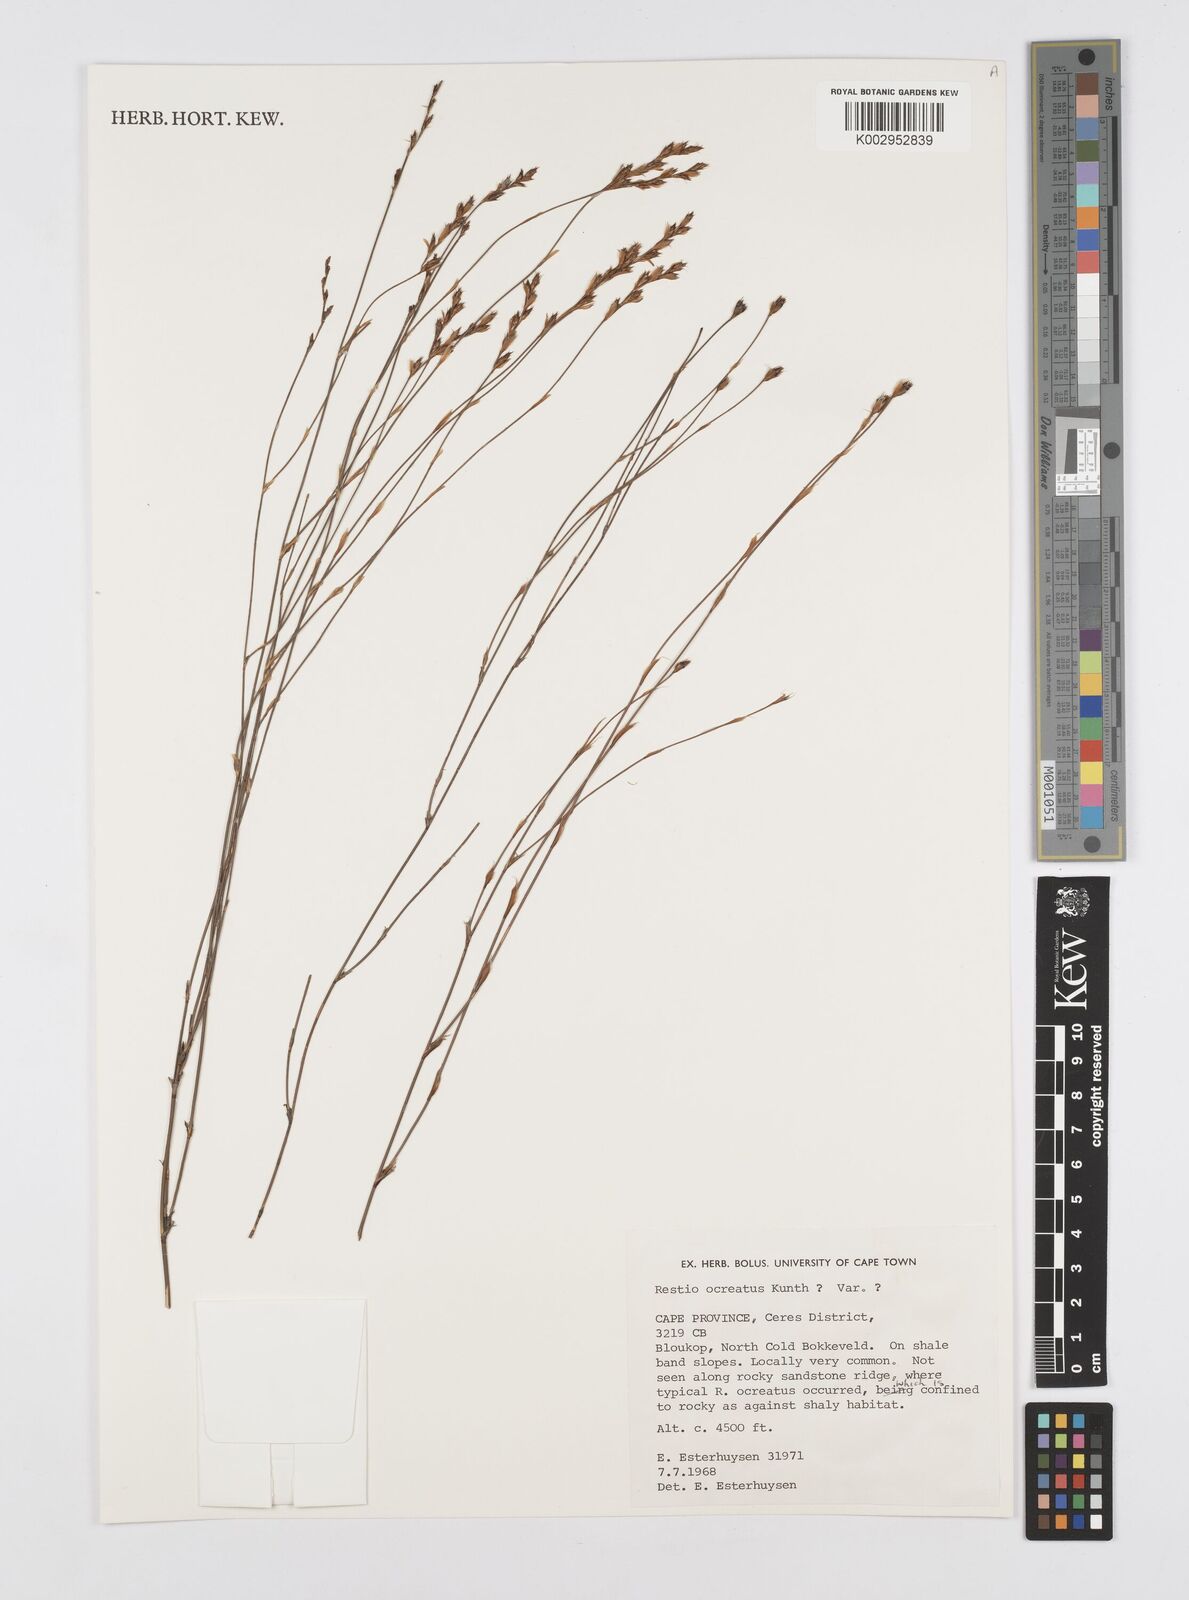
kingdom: Plantae
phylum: Tracheophyta
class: Liliopsida
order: Poales
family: Restionaceae
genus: Restio
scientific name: Restio ocreatus
